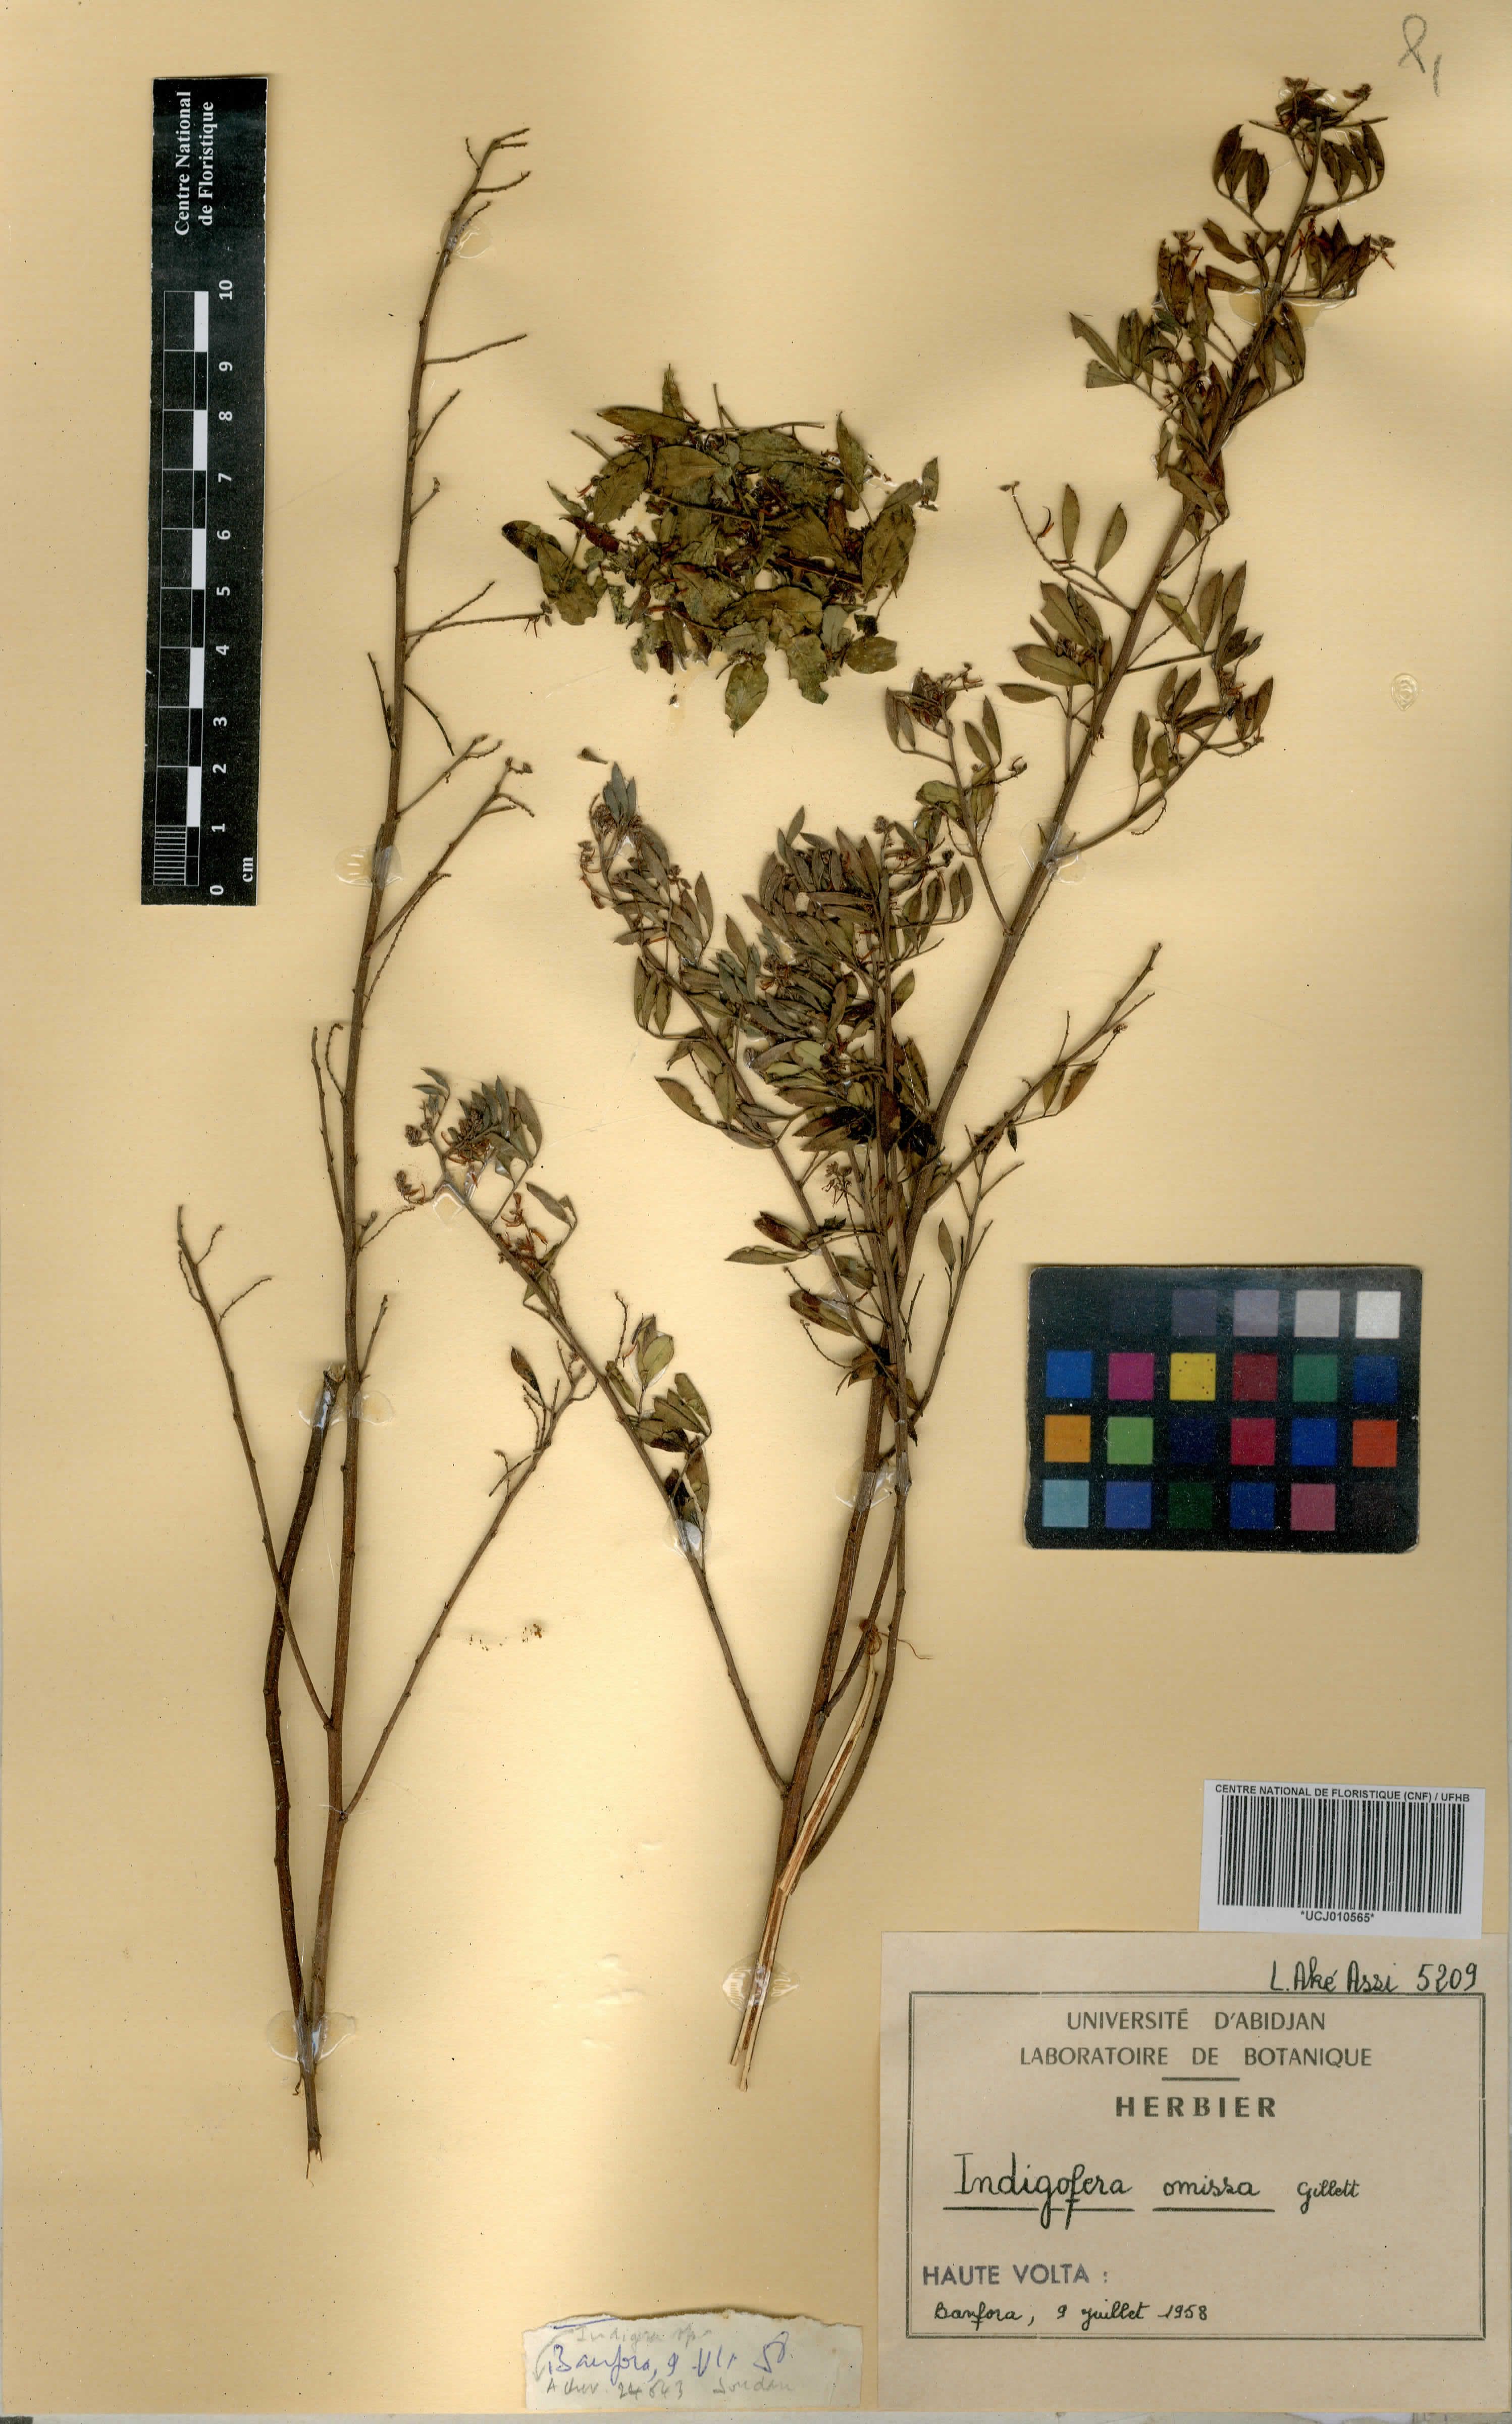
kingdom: Plantae
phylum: Tracheophyta
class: Magnoliopsida
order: Fabales
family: Fabaceae
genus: Indigofera
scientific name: Indigofera omissa
